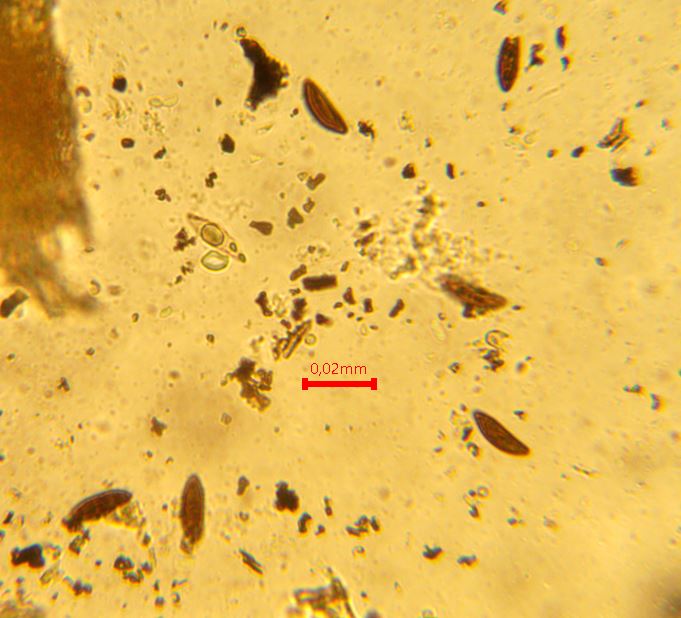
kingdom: Fungi
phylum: Ascomycota
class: Sordariomycetes
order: Xylariales
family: Xylariaceae
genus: Xylaria
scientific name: Xylaria polymorpha
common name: kølle-stødsvamp
